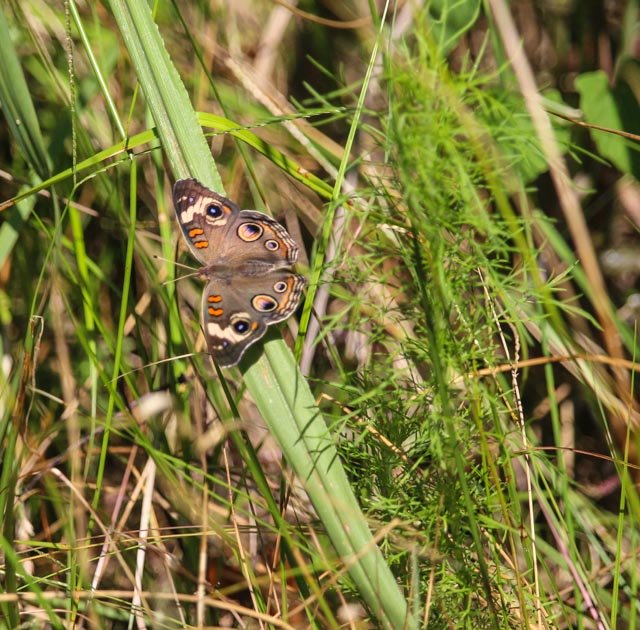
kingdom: Animalia
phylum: Arthropoda
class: Insecta
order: Lepidoptera
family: Nymphalidae
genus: Junonia
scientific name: Junonia coenia
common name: Common Buckeye
